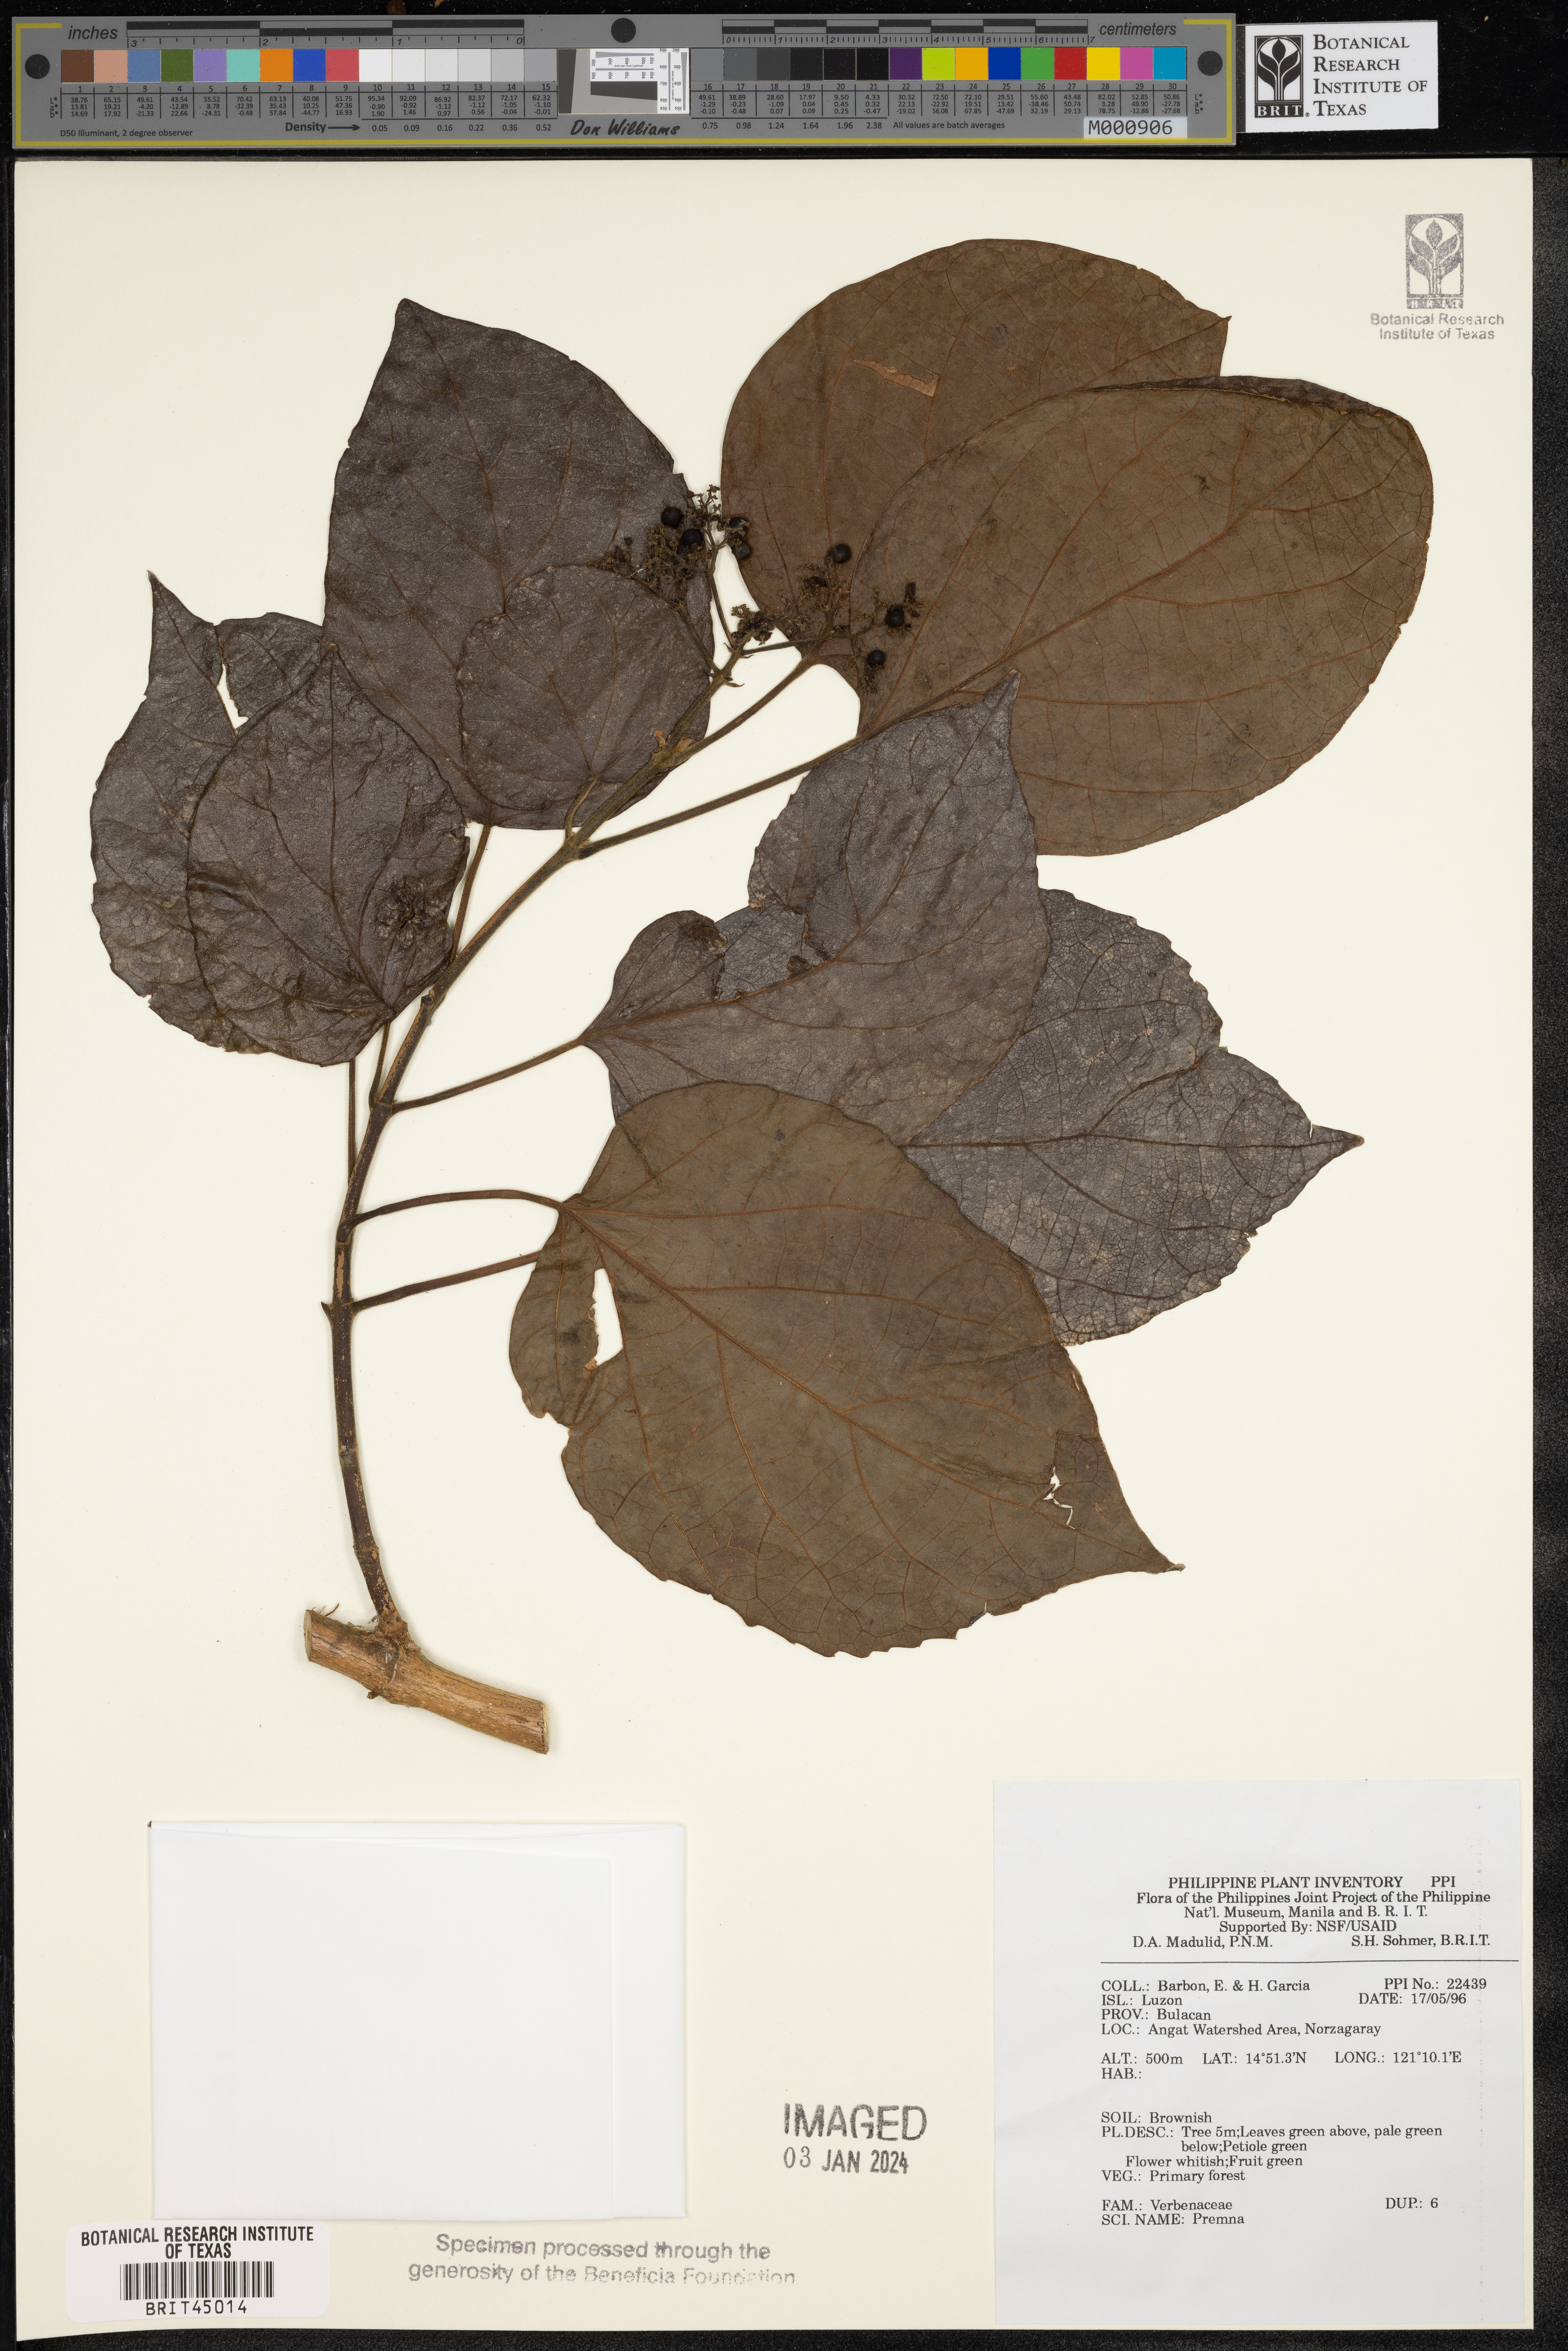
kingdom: Plantae
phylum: Tracheophyta
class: Magnoliopsida
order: Lamiales
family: Lamiaceae
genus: Premna
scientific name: Premna
